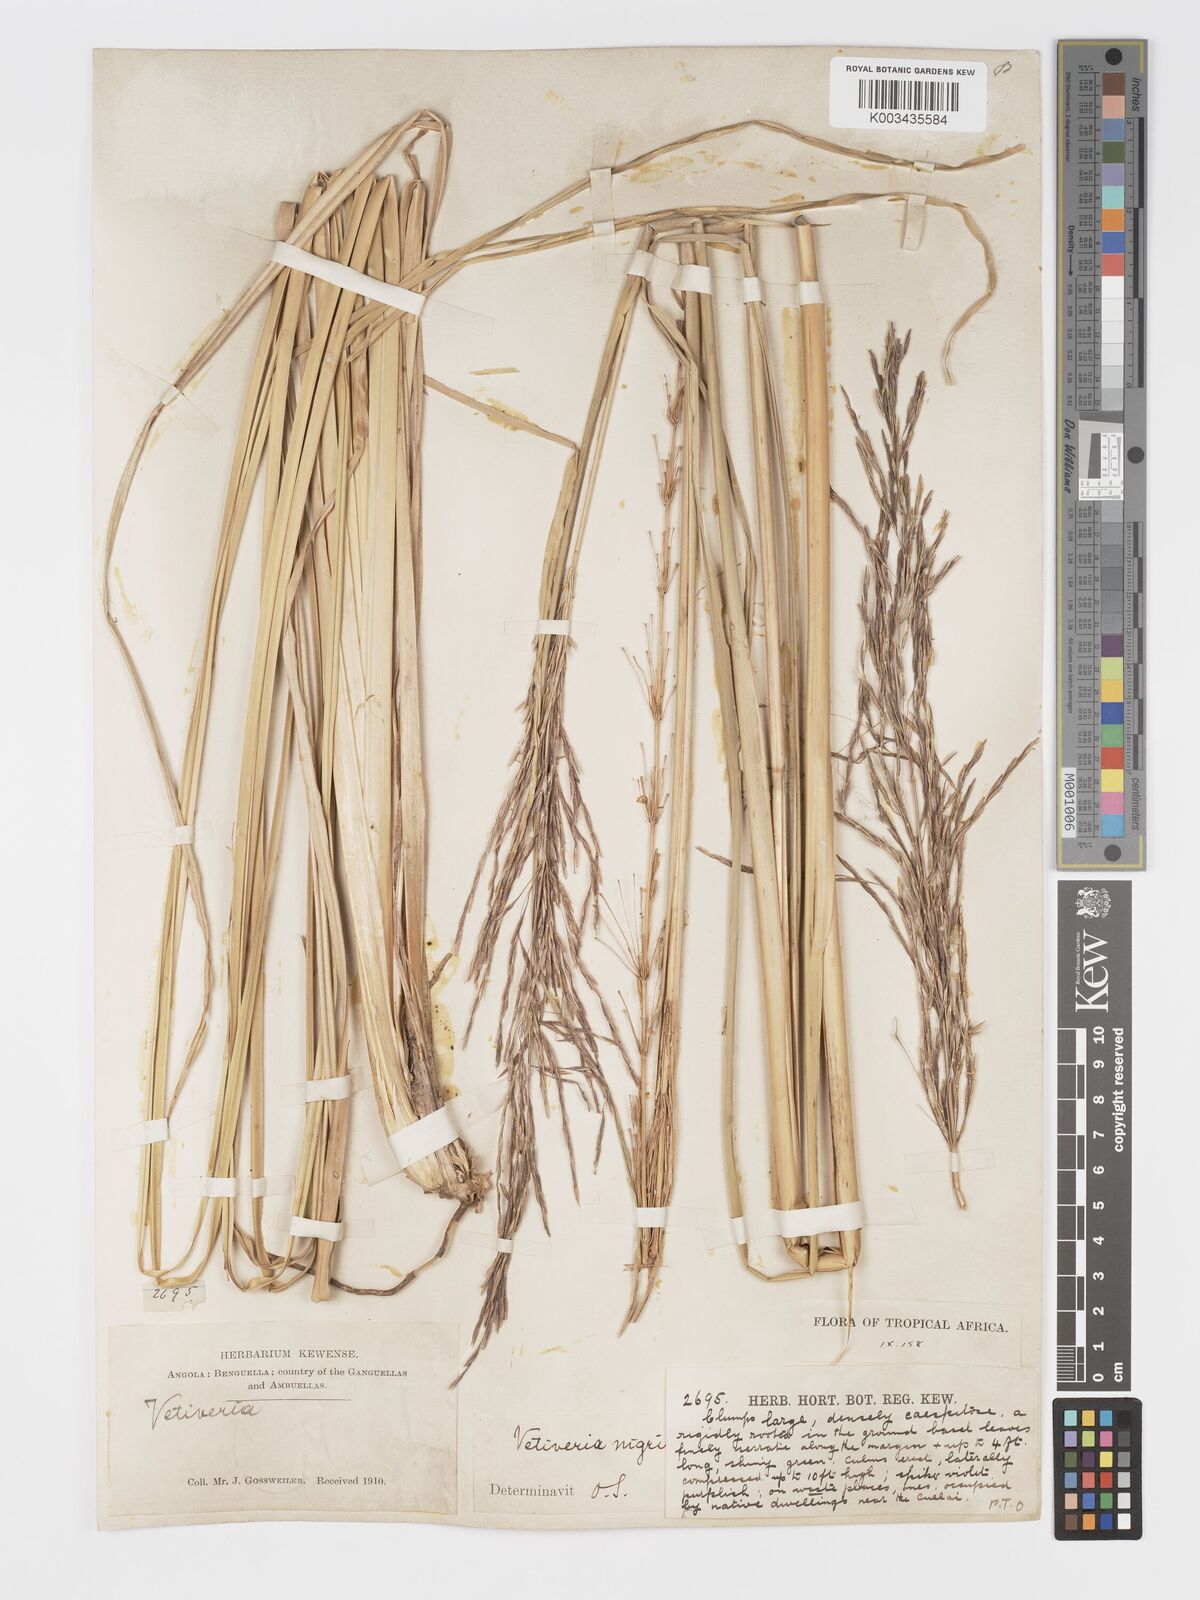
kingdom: Plantae
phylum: Tracheophyta
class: Liliopsida
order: Poales
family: Poaceae
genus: Chrysopogon
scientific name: Chrysopogon nigritanus
